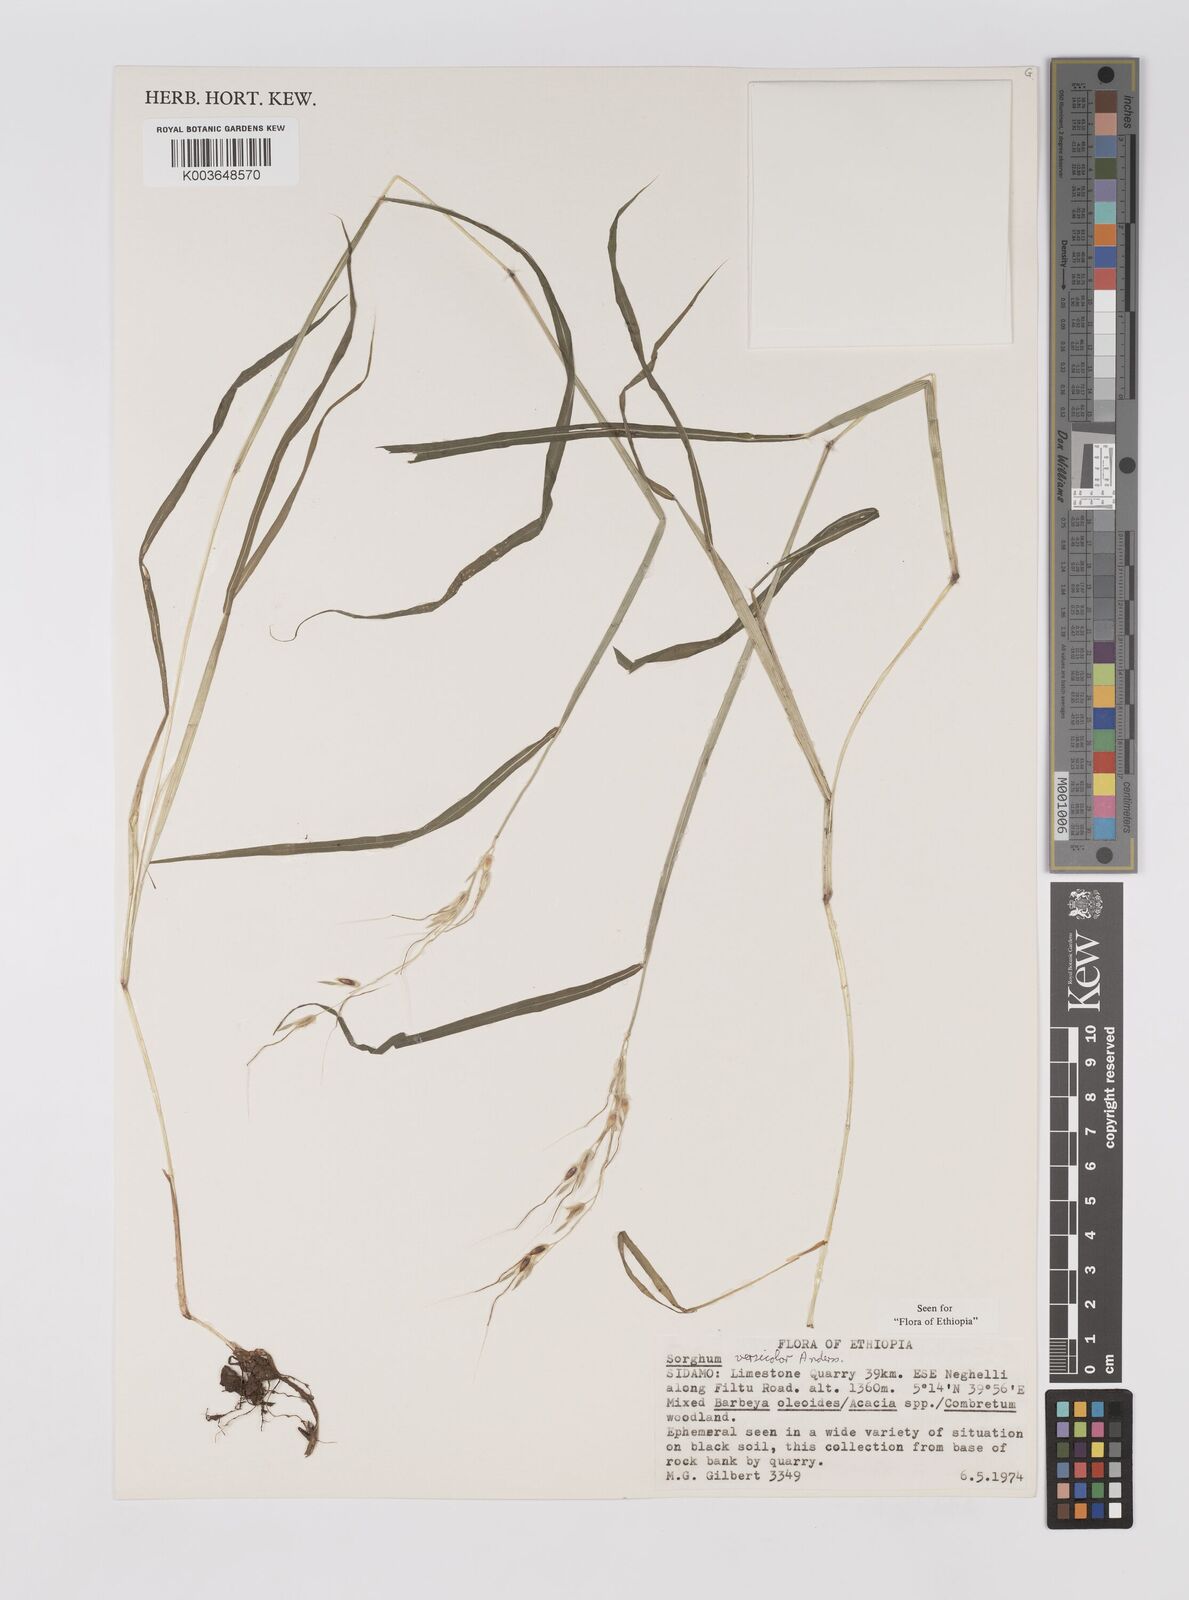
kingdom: Plantae
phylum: Tracheophyta
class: Liliopsida
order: Poales
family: Poaceae
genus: Sarga
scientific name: Sarga versicolor
